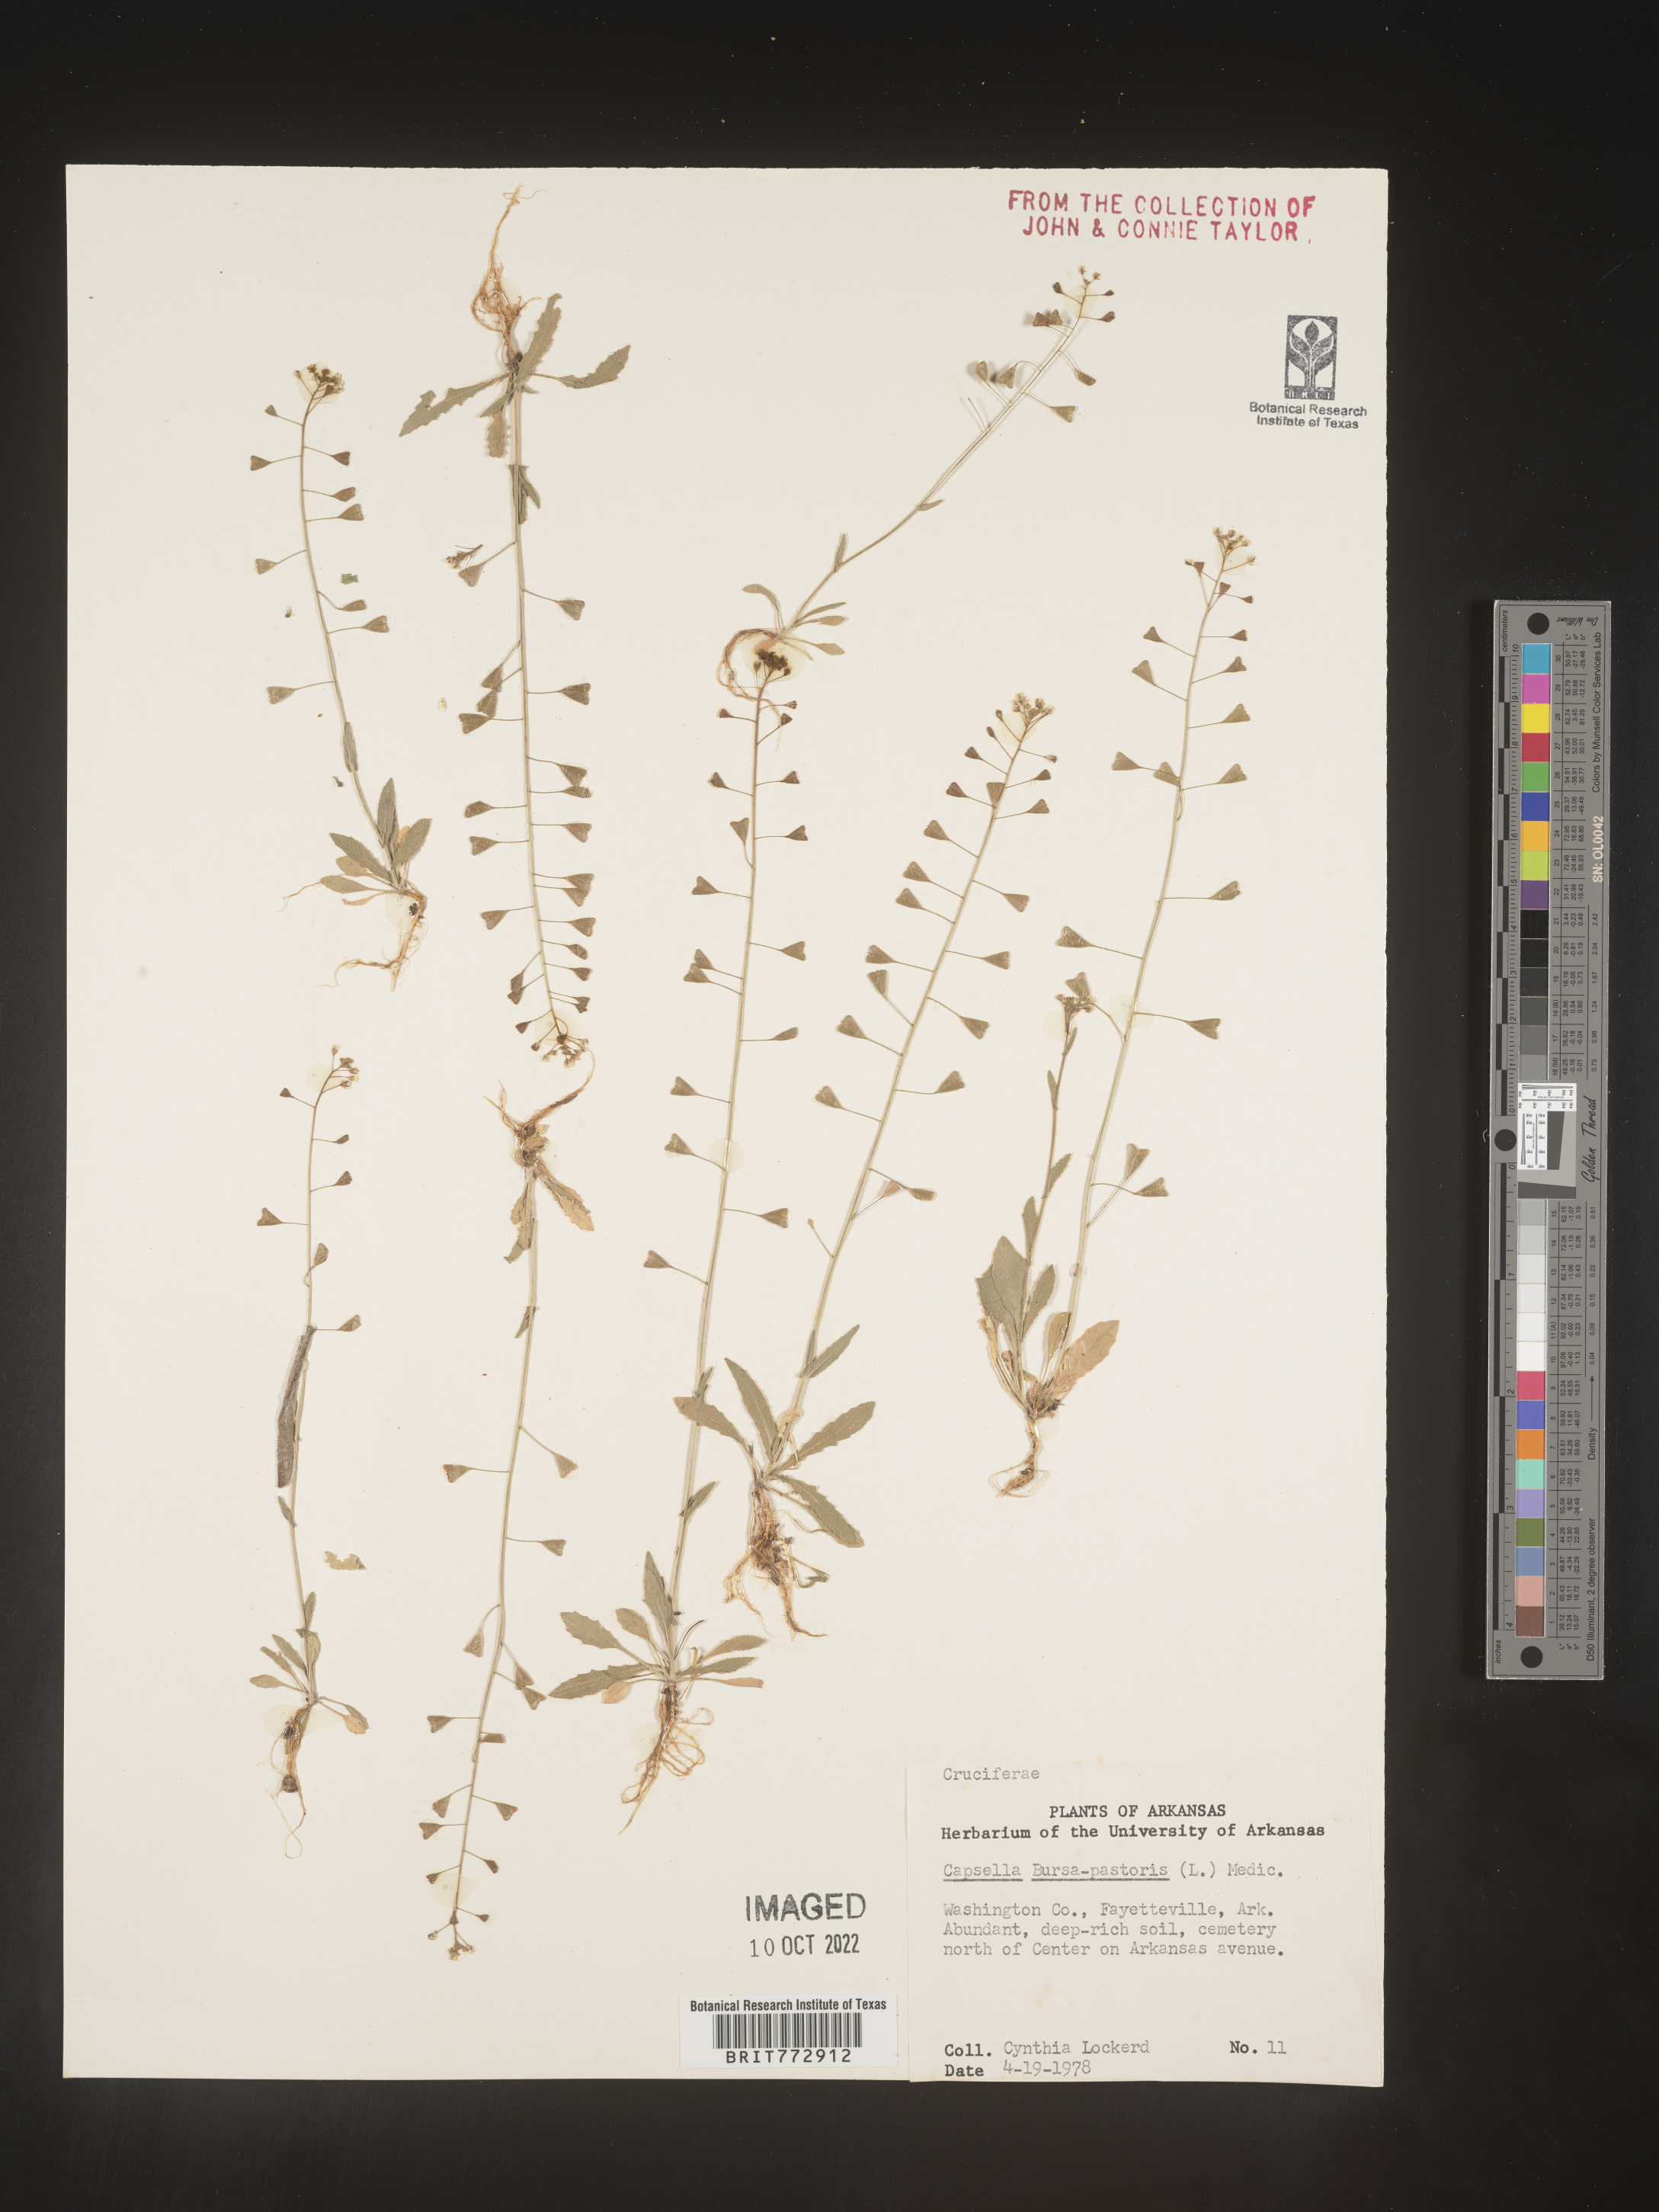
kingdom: Plantae
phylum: Tracheophyta
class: Magnoliopsida
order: Brassicales
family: Brassicaceae
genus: Capsella
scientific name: Capsella bursa-pastoris
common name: Shepherd's purse
